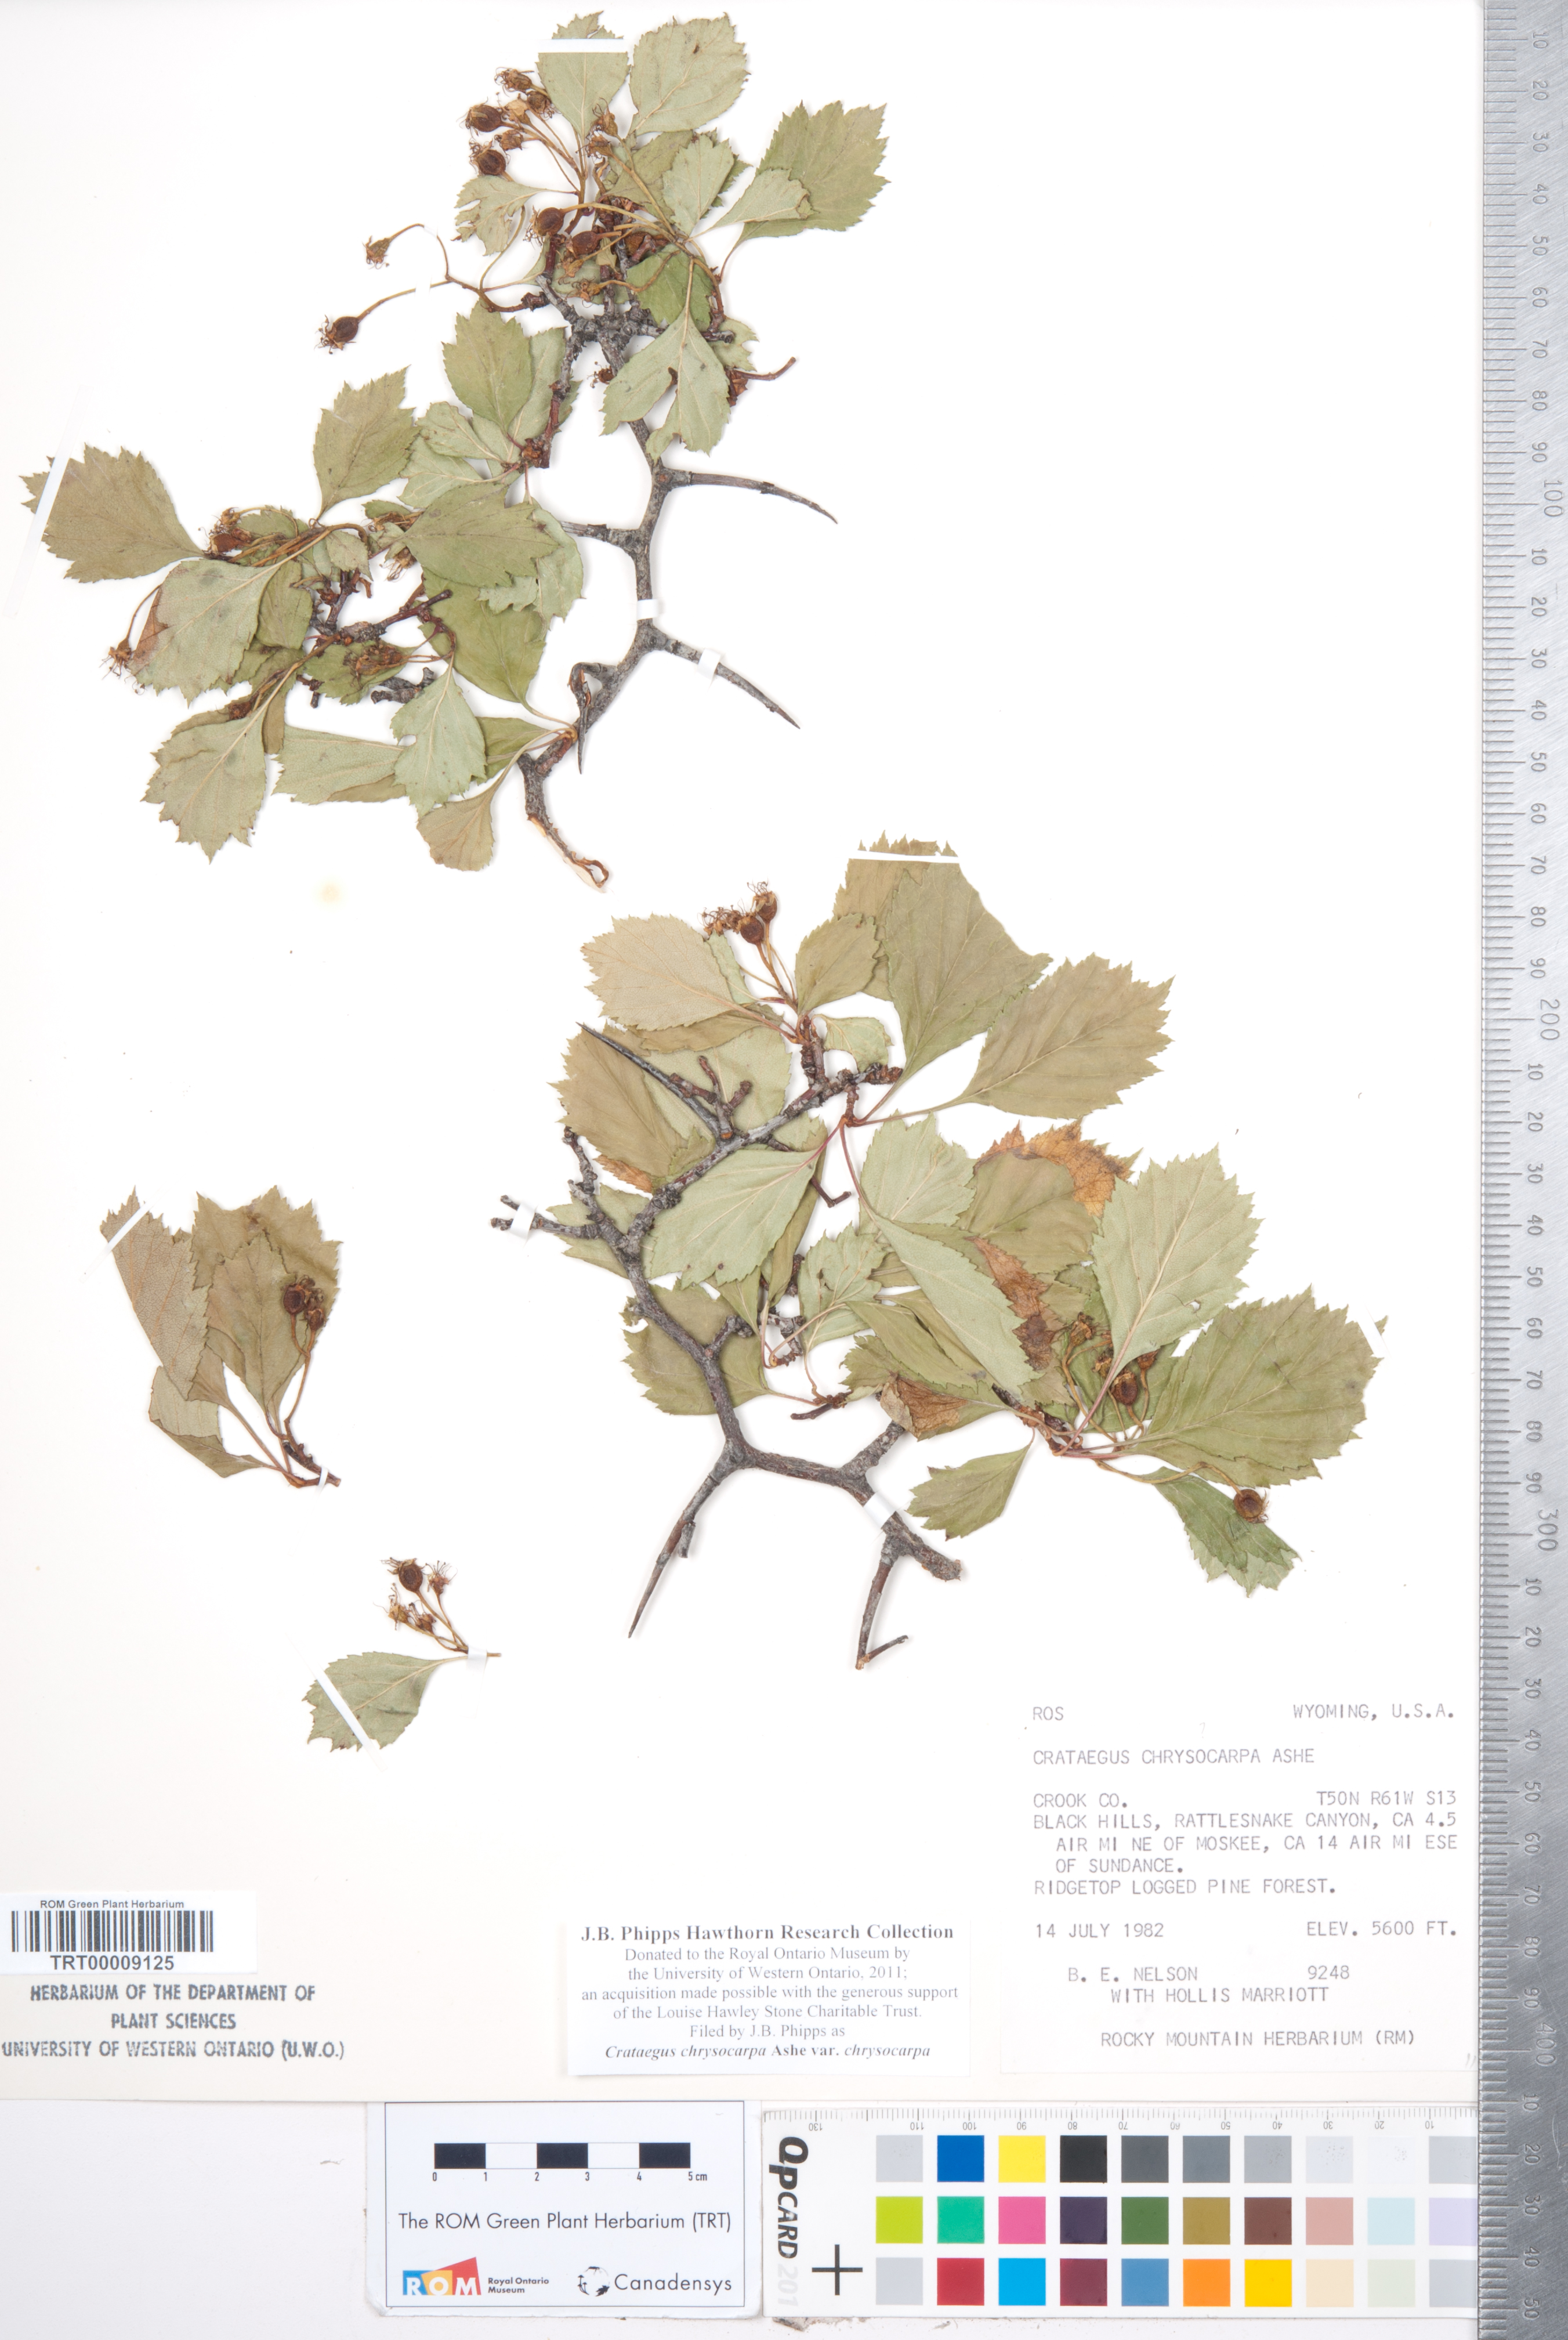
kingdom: Plantae
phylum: Tracheophyta
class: Magnoliopsida
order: Rosales
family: Rosaceae
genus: Crataegus
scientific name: Crataegus chrysocarpa
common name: Fire-berry hawthorn
